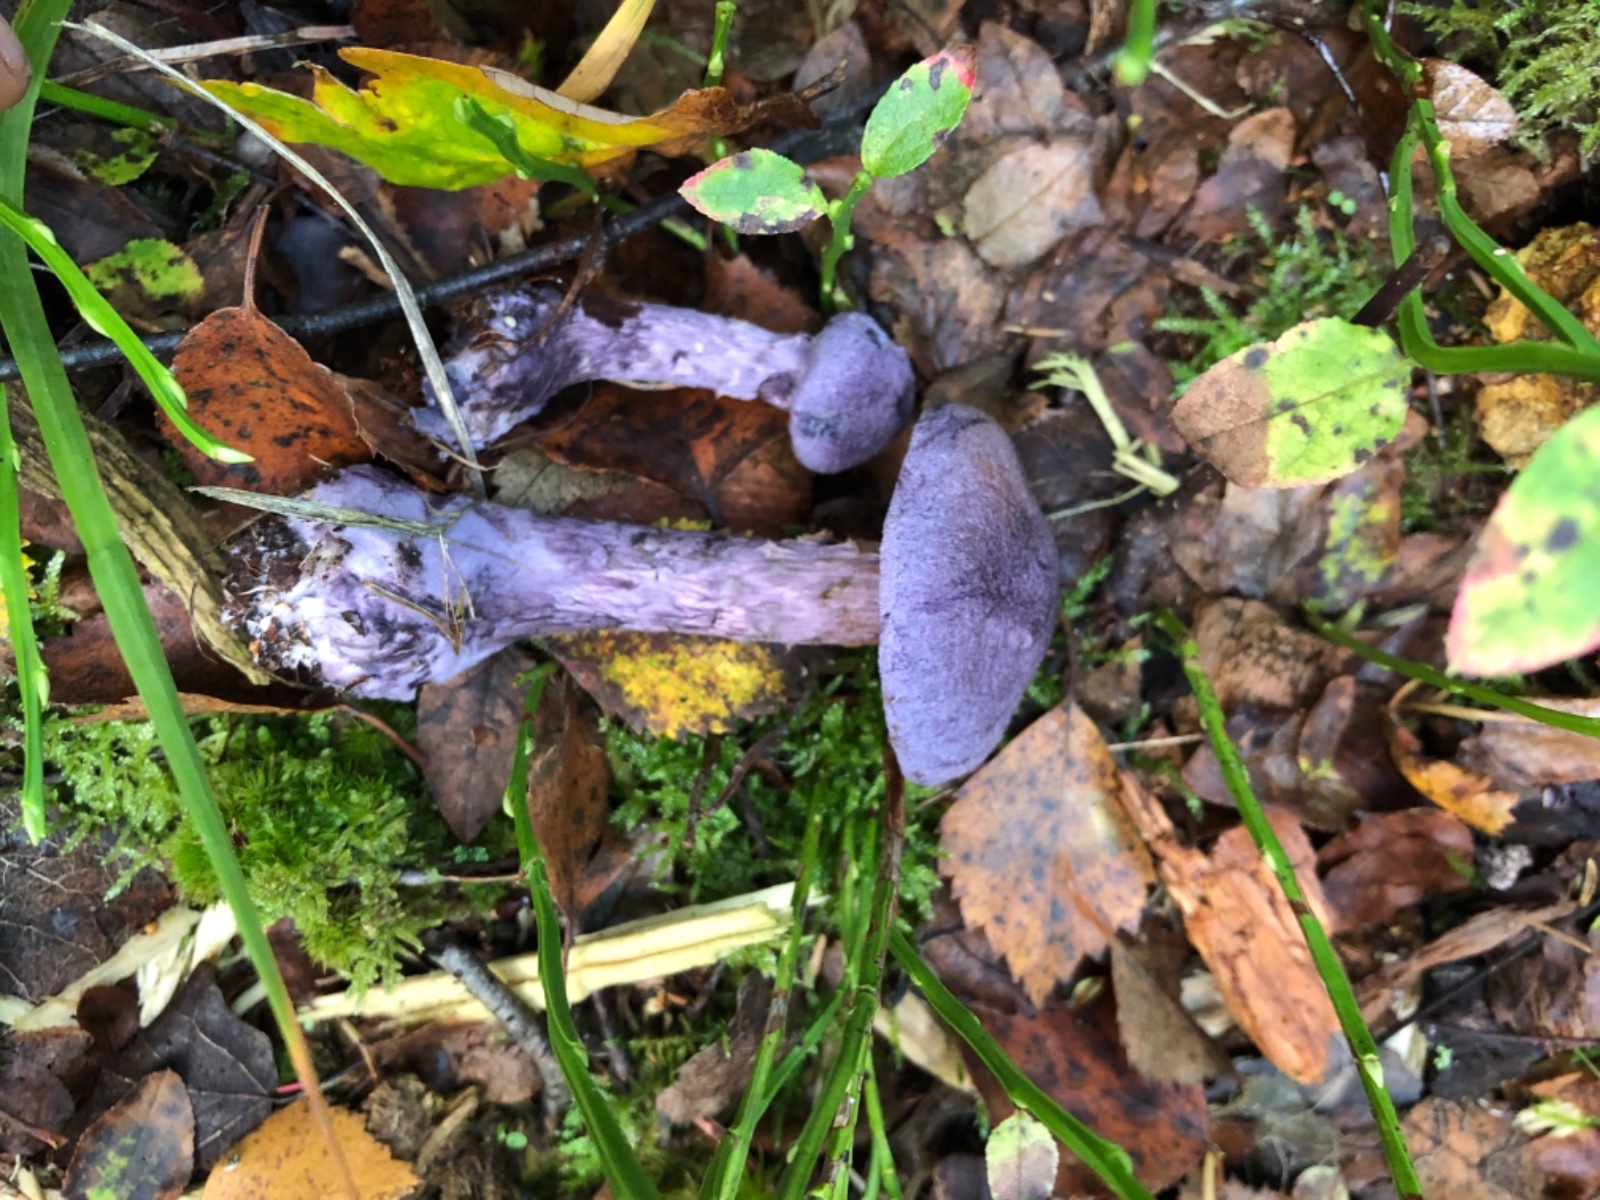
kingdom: Fungi
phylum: Basidiomycota
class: Agaricomycetes
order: Agaricales
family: Cortinariaceae
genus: Cortinarius
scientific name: Cortinarius violaceus
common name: mørkviolet slørhat
